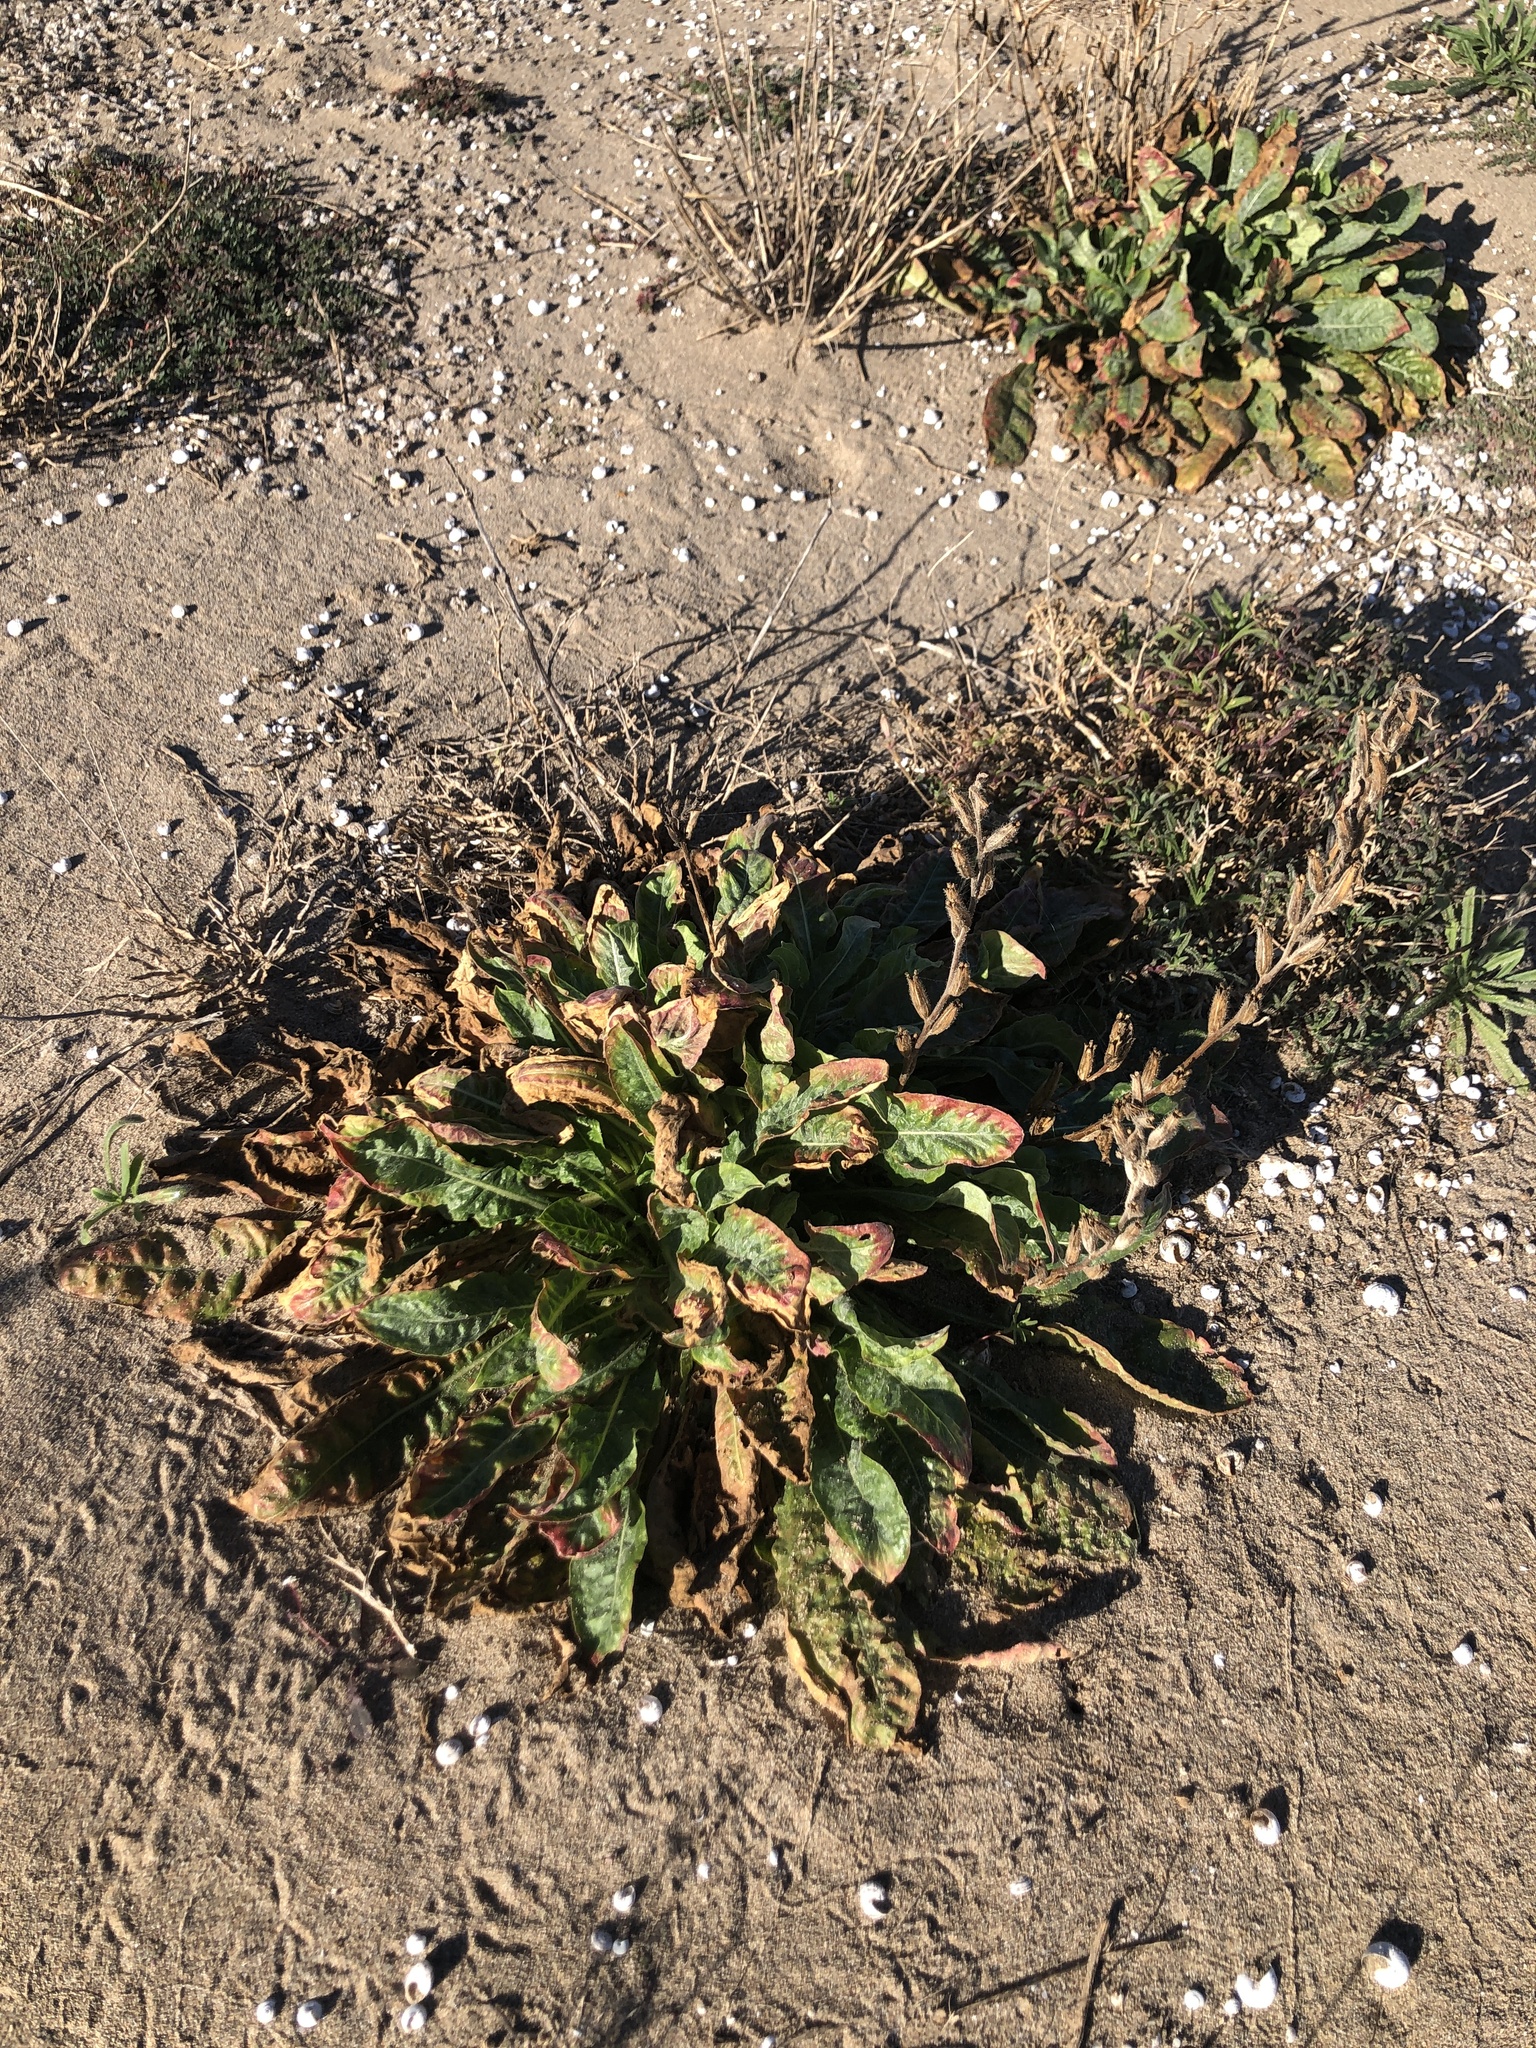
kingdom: Plantae
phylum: Tracheophyta
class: Magnoliopsida
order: Myrtales
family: Onagraceae
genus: Oenothera
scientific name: Oenothera glazioviana
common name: Large-flowered evening-primrose
